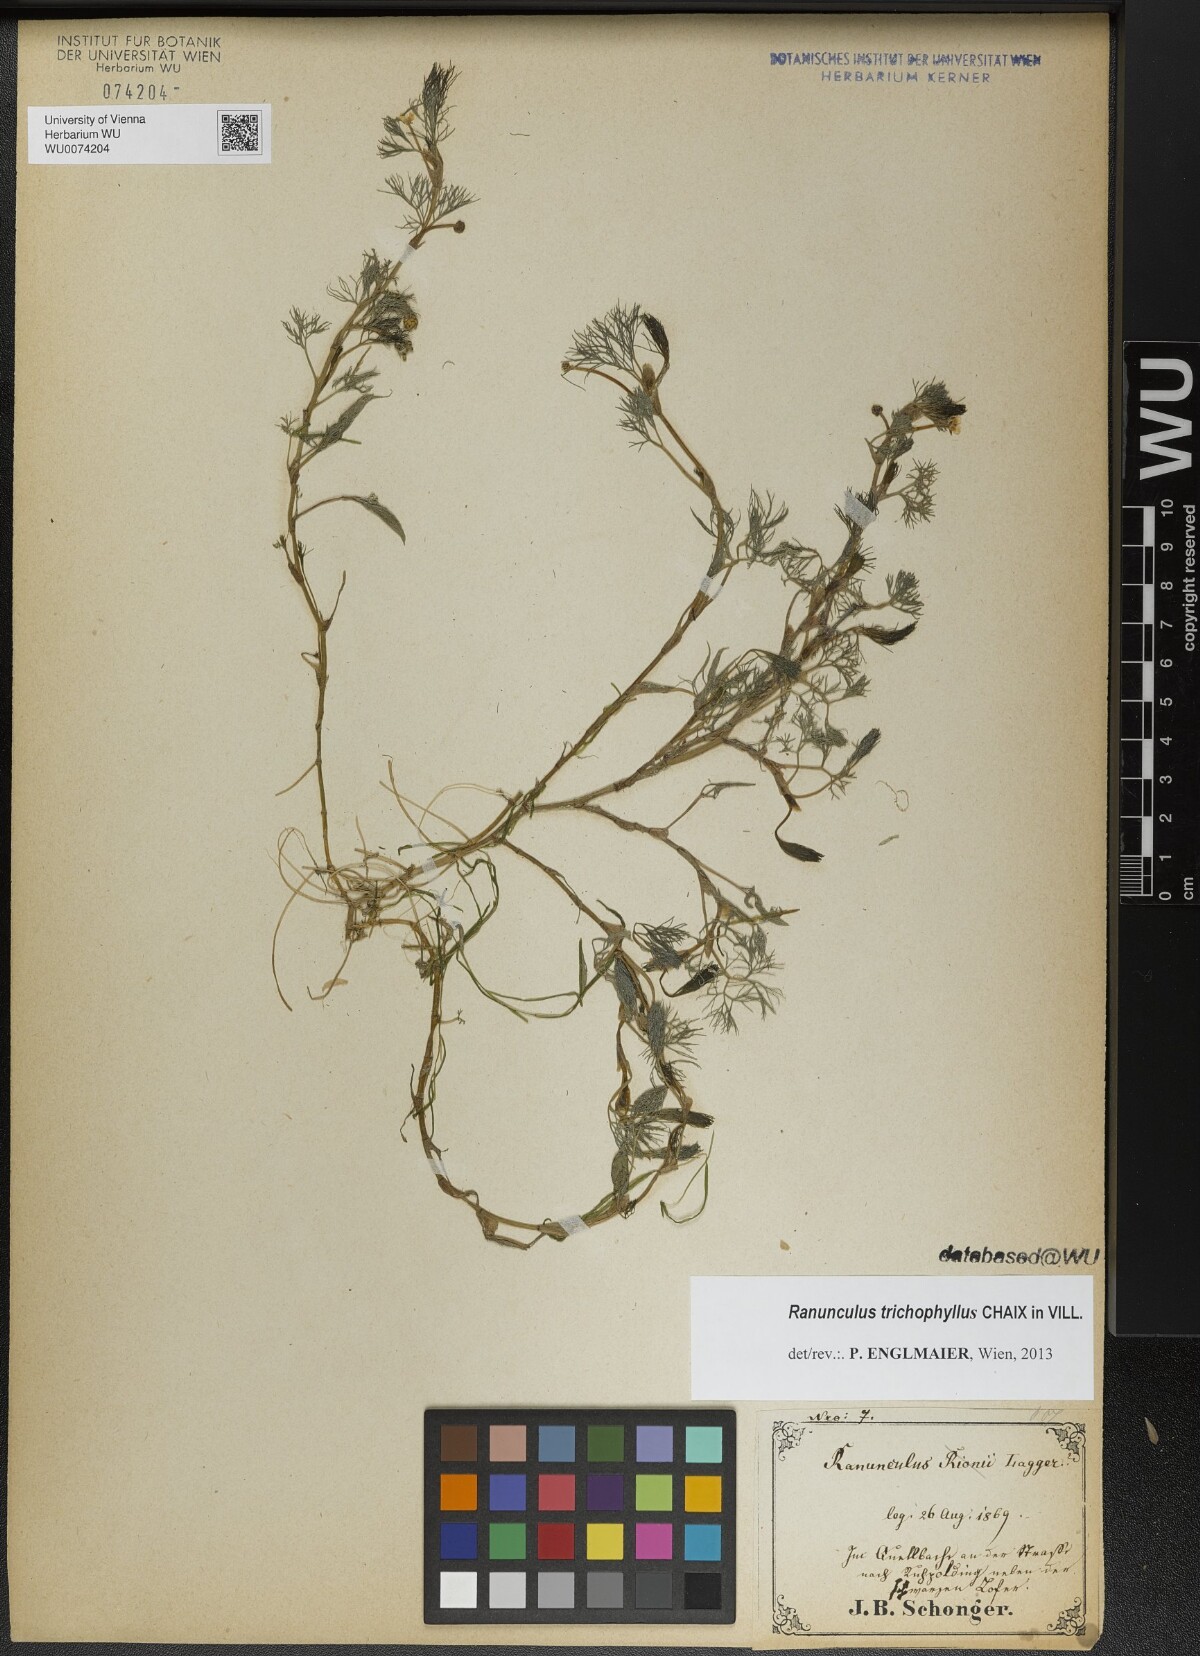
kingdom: Plantae
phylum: Tracheophyta
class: Magnoliopsida
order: Ranunculales
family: Ranunculaceae
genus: Ranunculus
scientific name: Ranunculus trichophyllus
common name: Thread-leaved water-crowfoot
